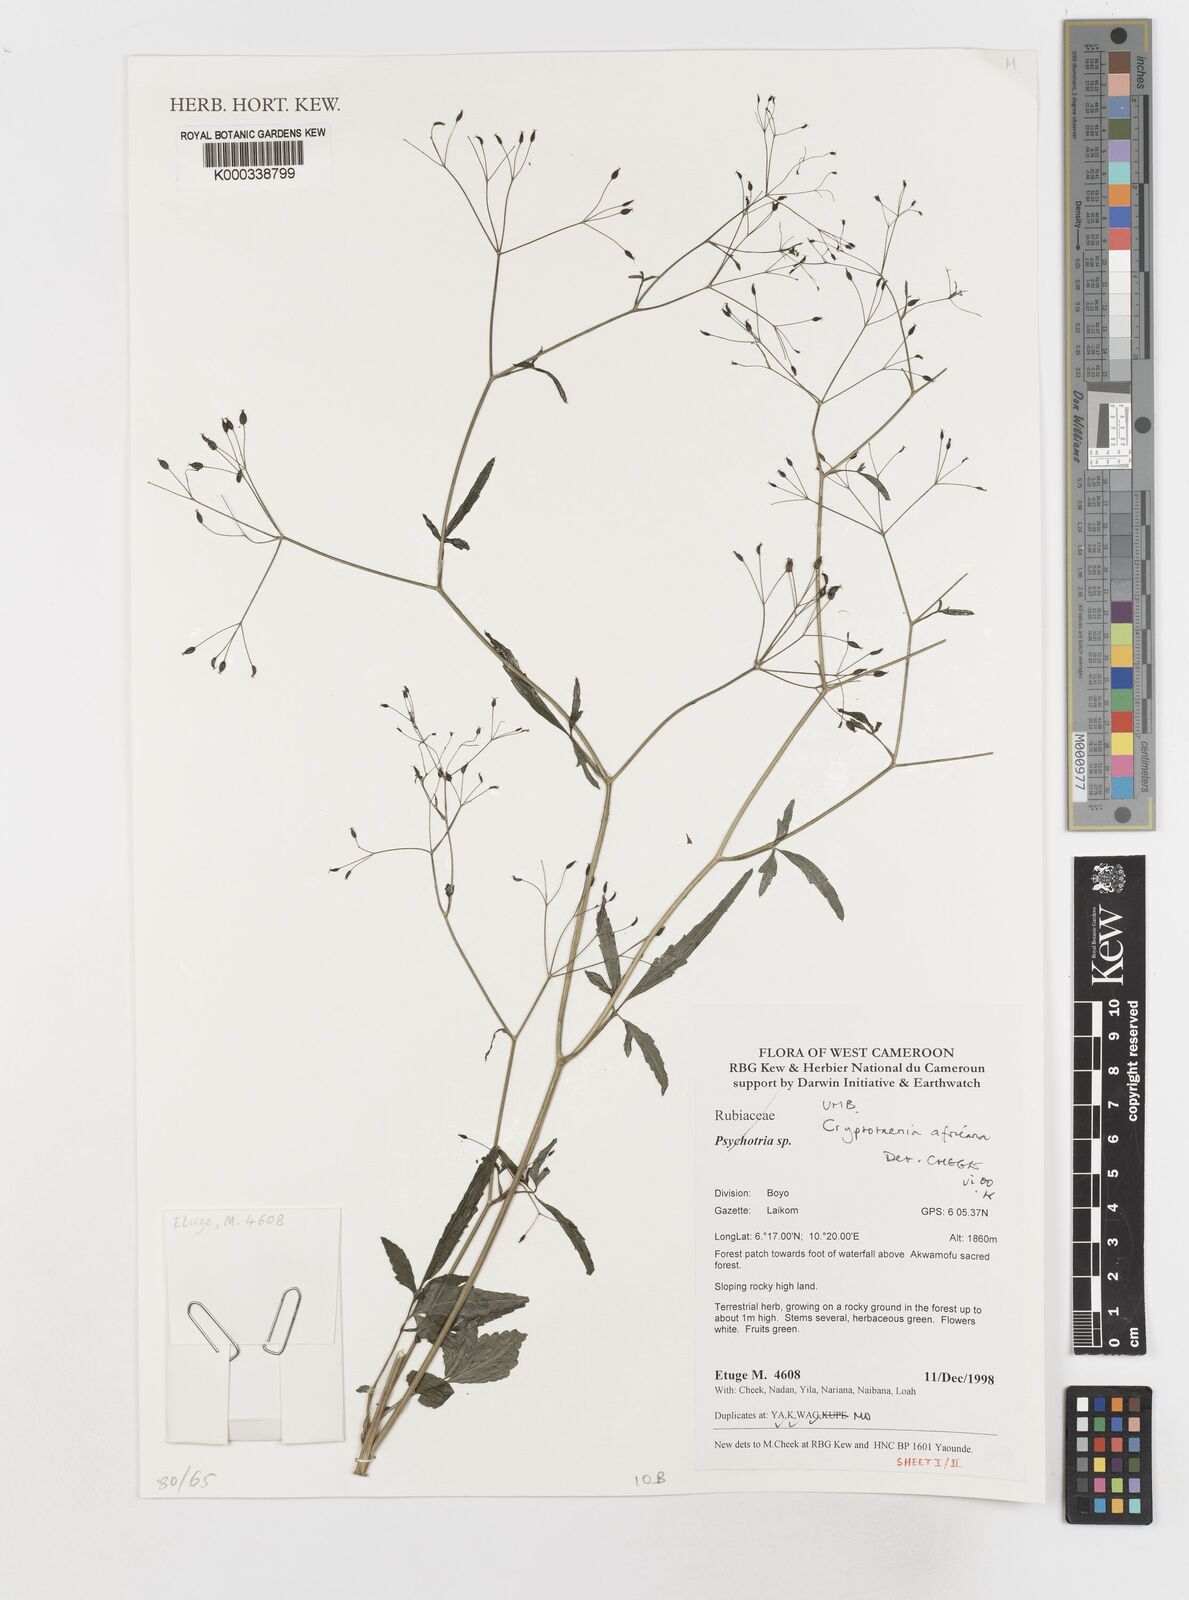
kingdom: Plantae
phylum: Tracheophyta
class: Magnoliopsida
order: Apiales
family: Apiaceae
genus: Cryptotaenia
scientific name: Cryptotaenia africana
